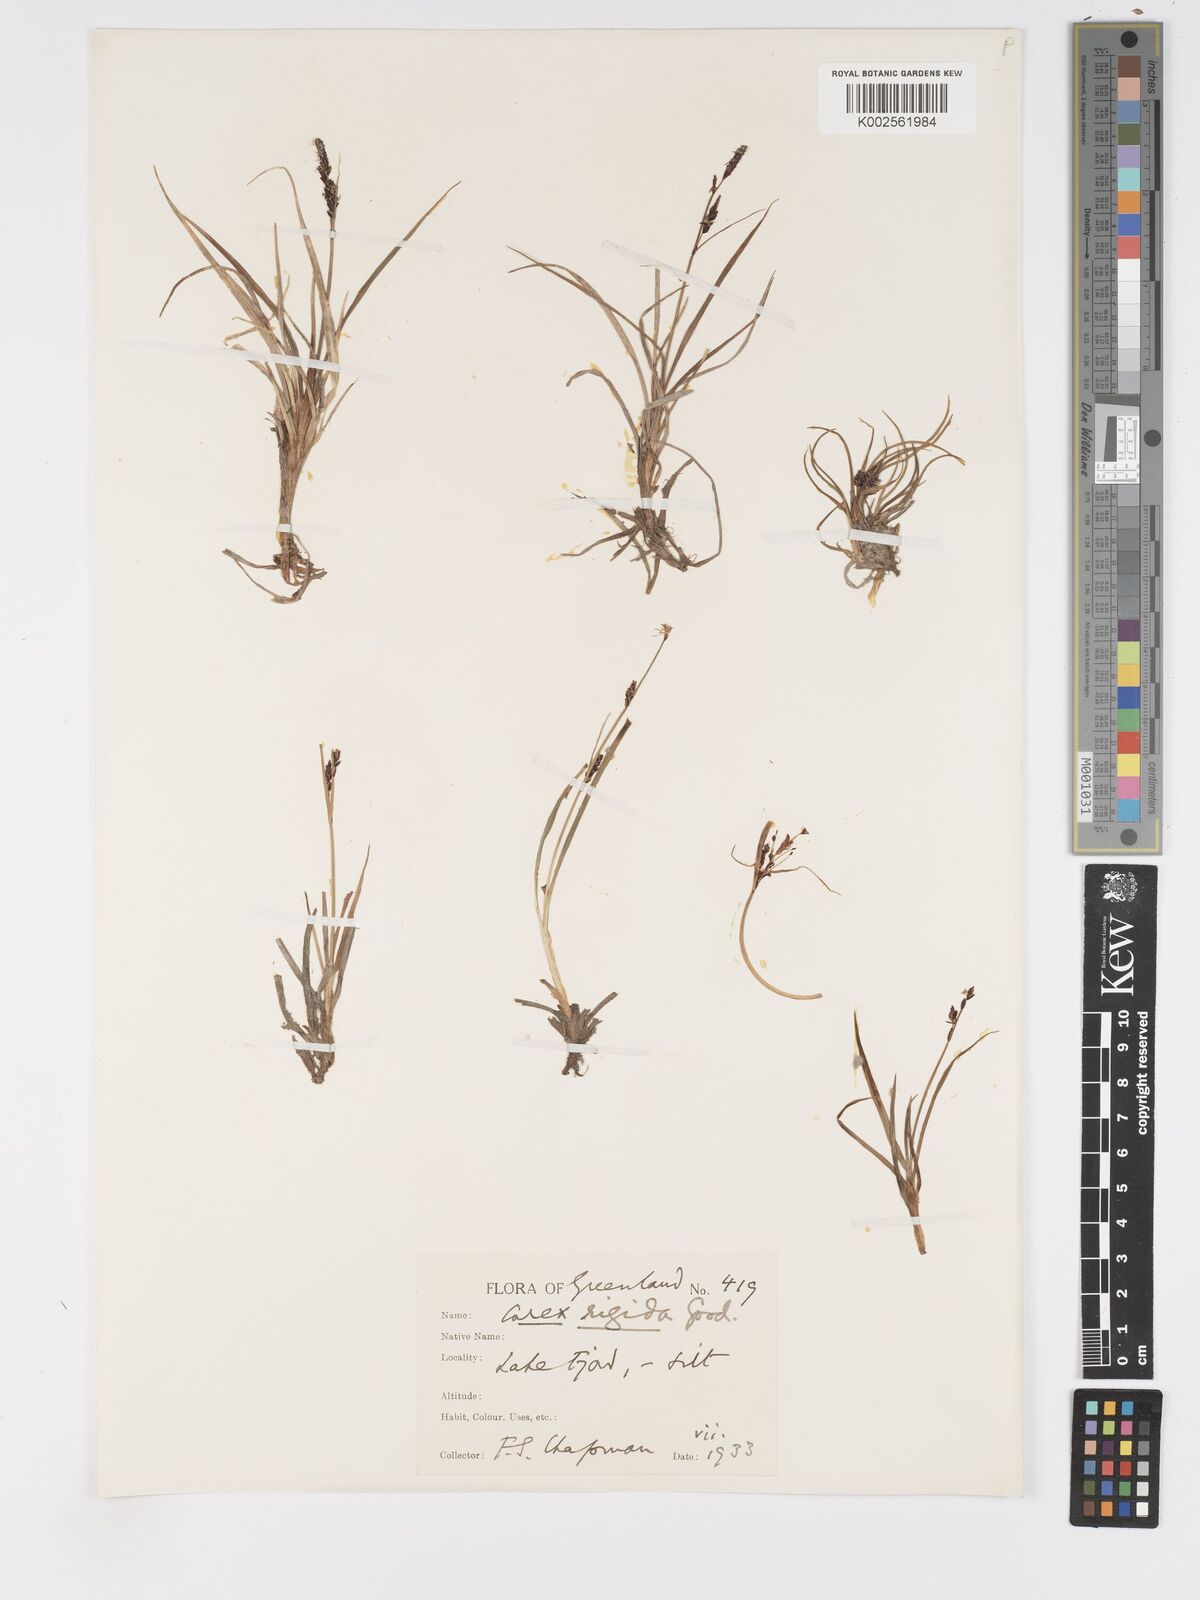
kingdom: Plantae
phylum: Tracheophyta
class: Liliopsida
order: Poales
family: Cyperaceae
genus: Carex
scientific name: Carex bigelowii
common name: Stiff sedge
